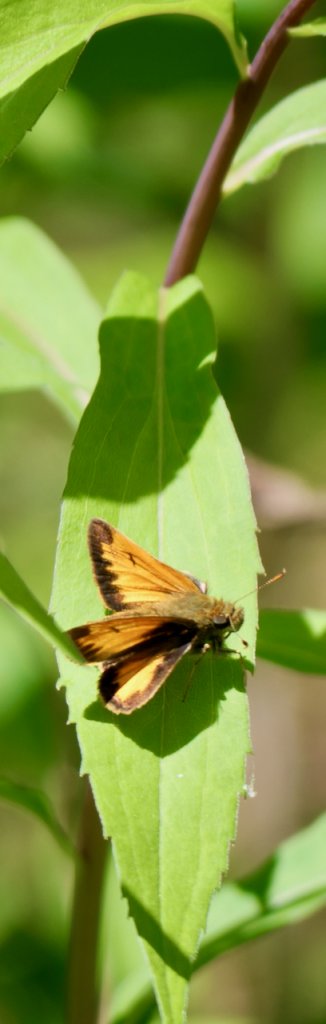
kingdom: Animalia
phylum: Arthropoda
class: Insecta
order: Lepidoptera
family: Hesperiidae
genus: Lon
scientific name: Lon hobomok
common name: Hobomok Skipper
